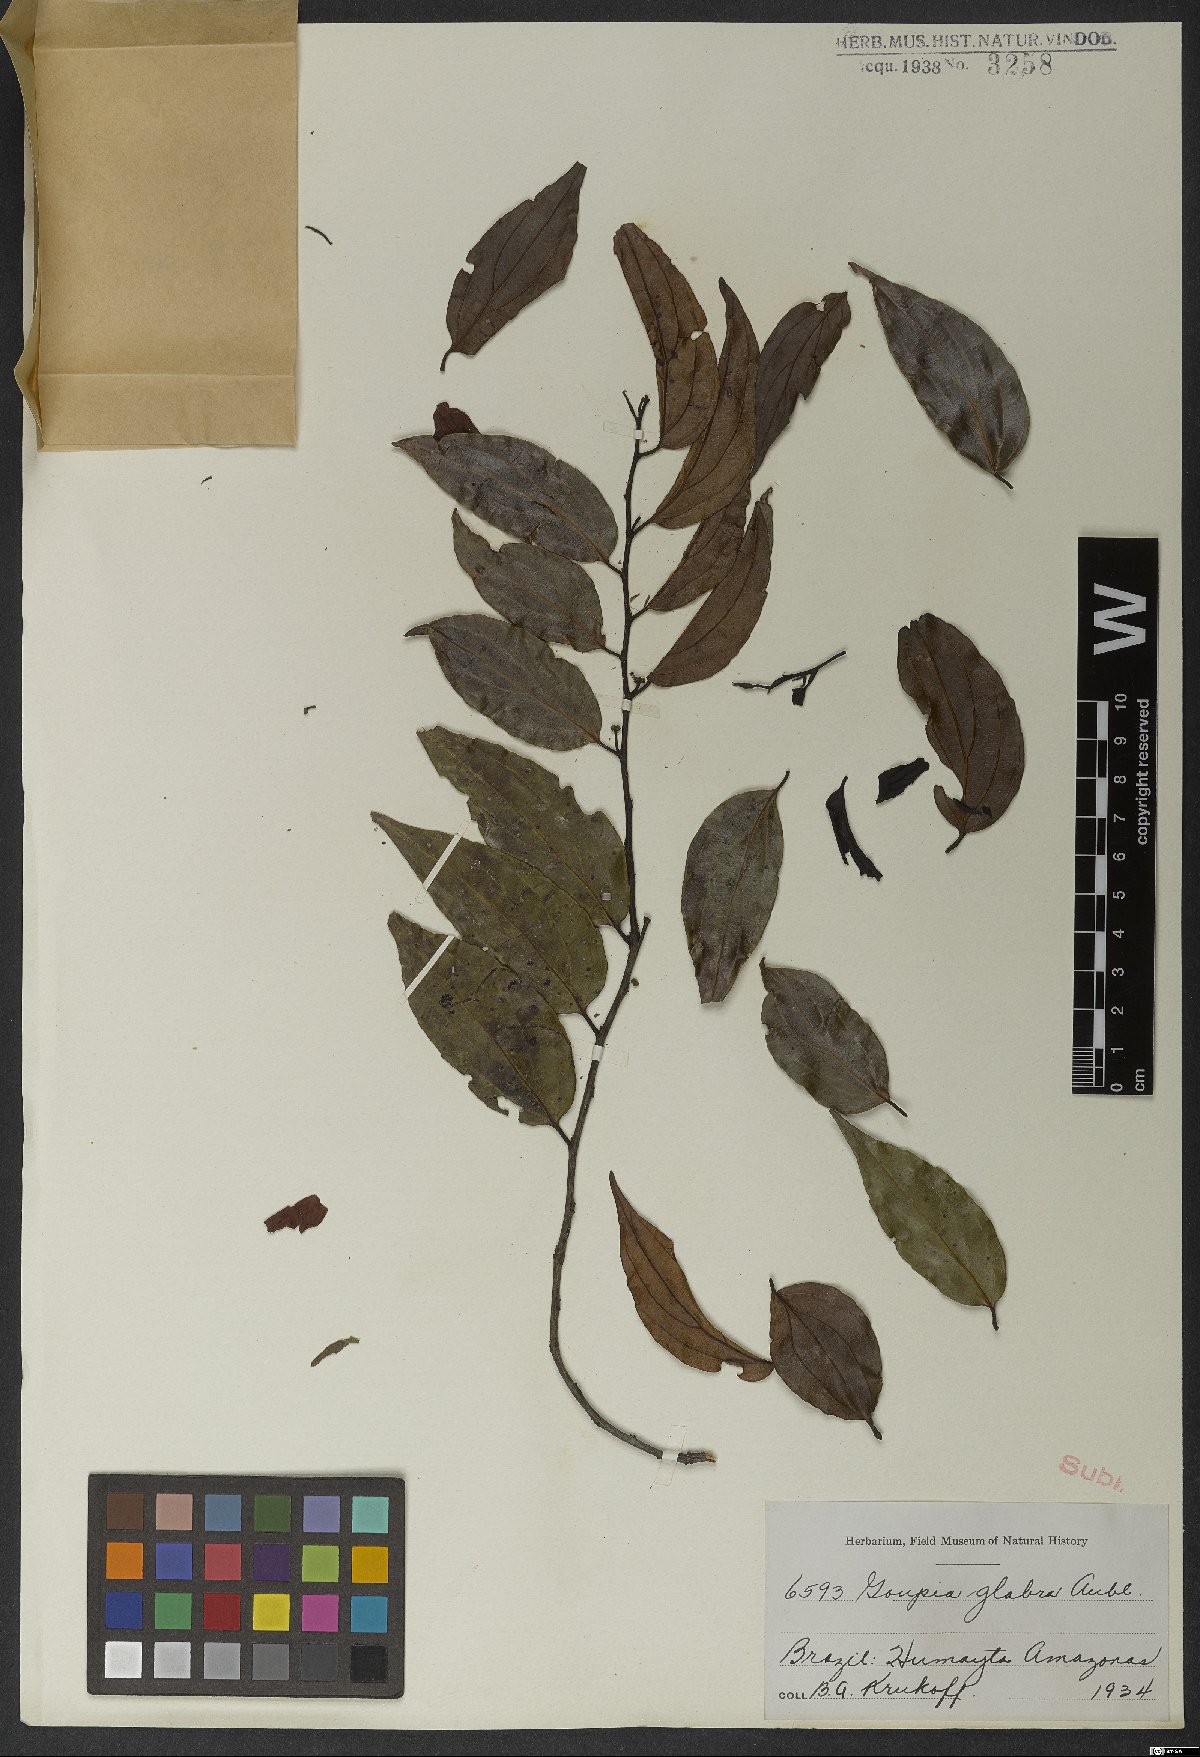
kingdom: Plantae
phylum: Tracheophyta
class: Magnoliopsida
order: Malpighiales
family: Goupiaceae
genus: Goupia
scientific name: Goupia glabra
